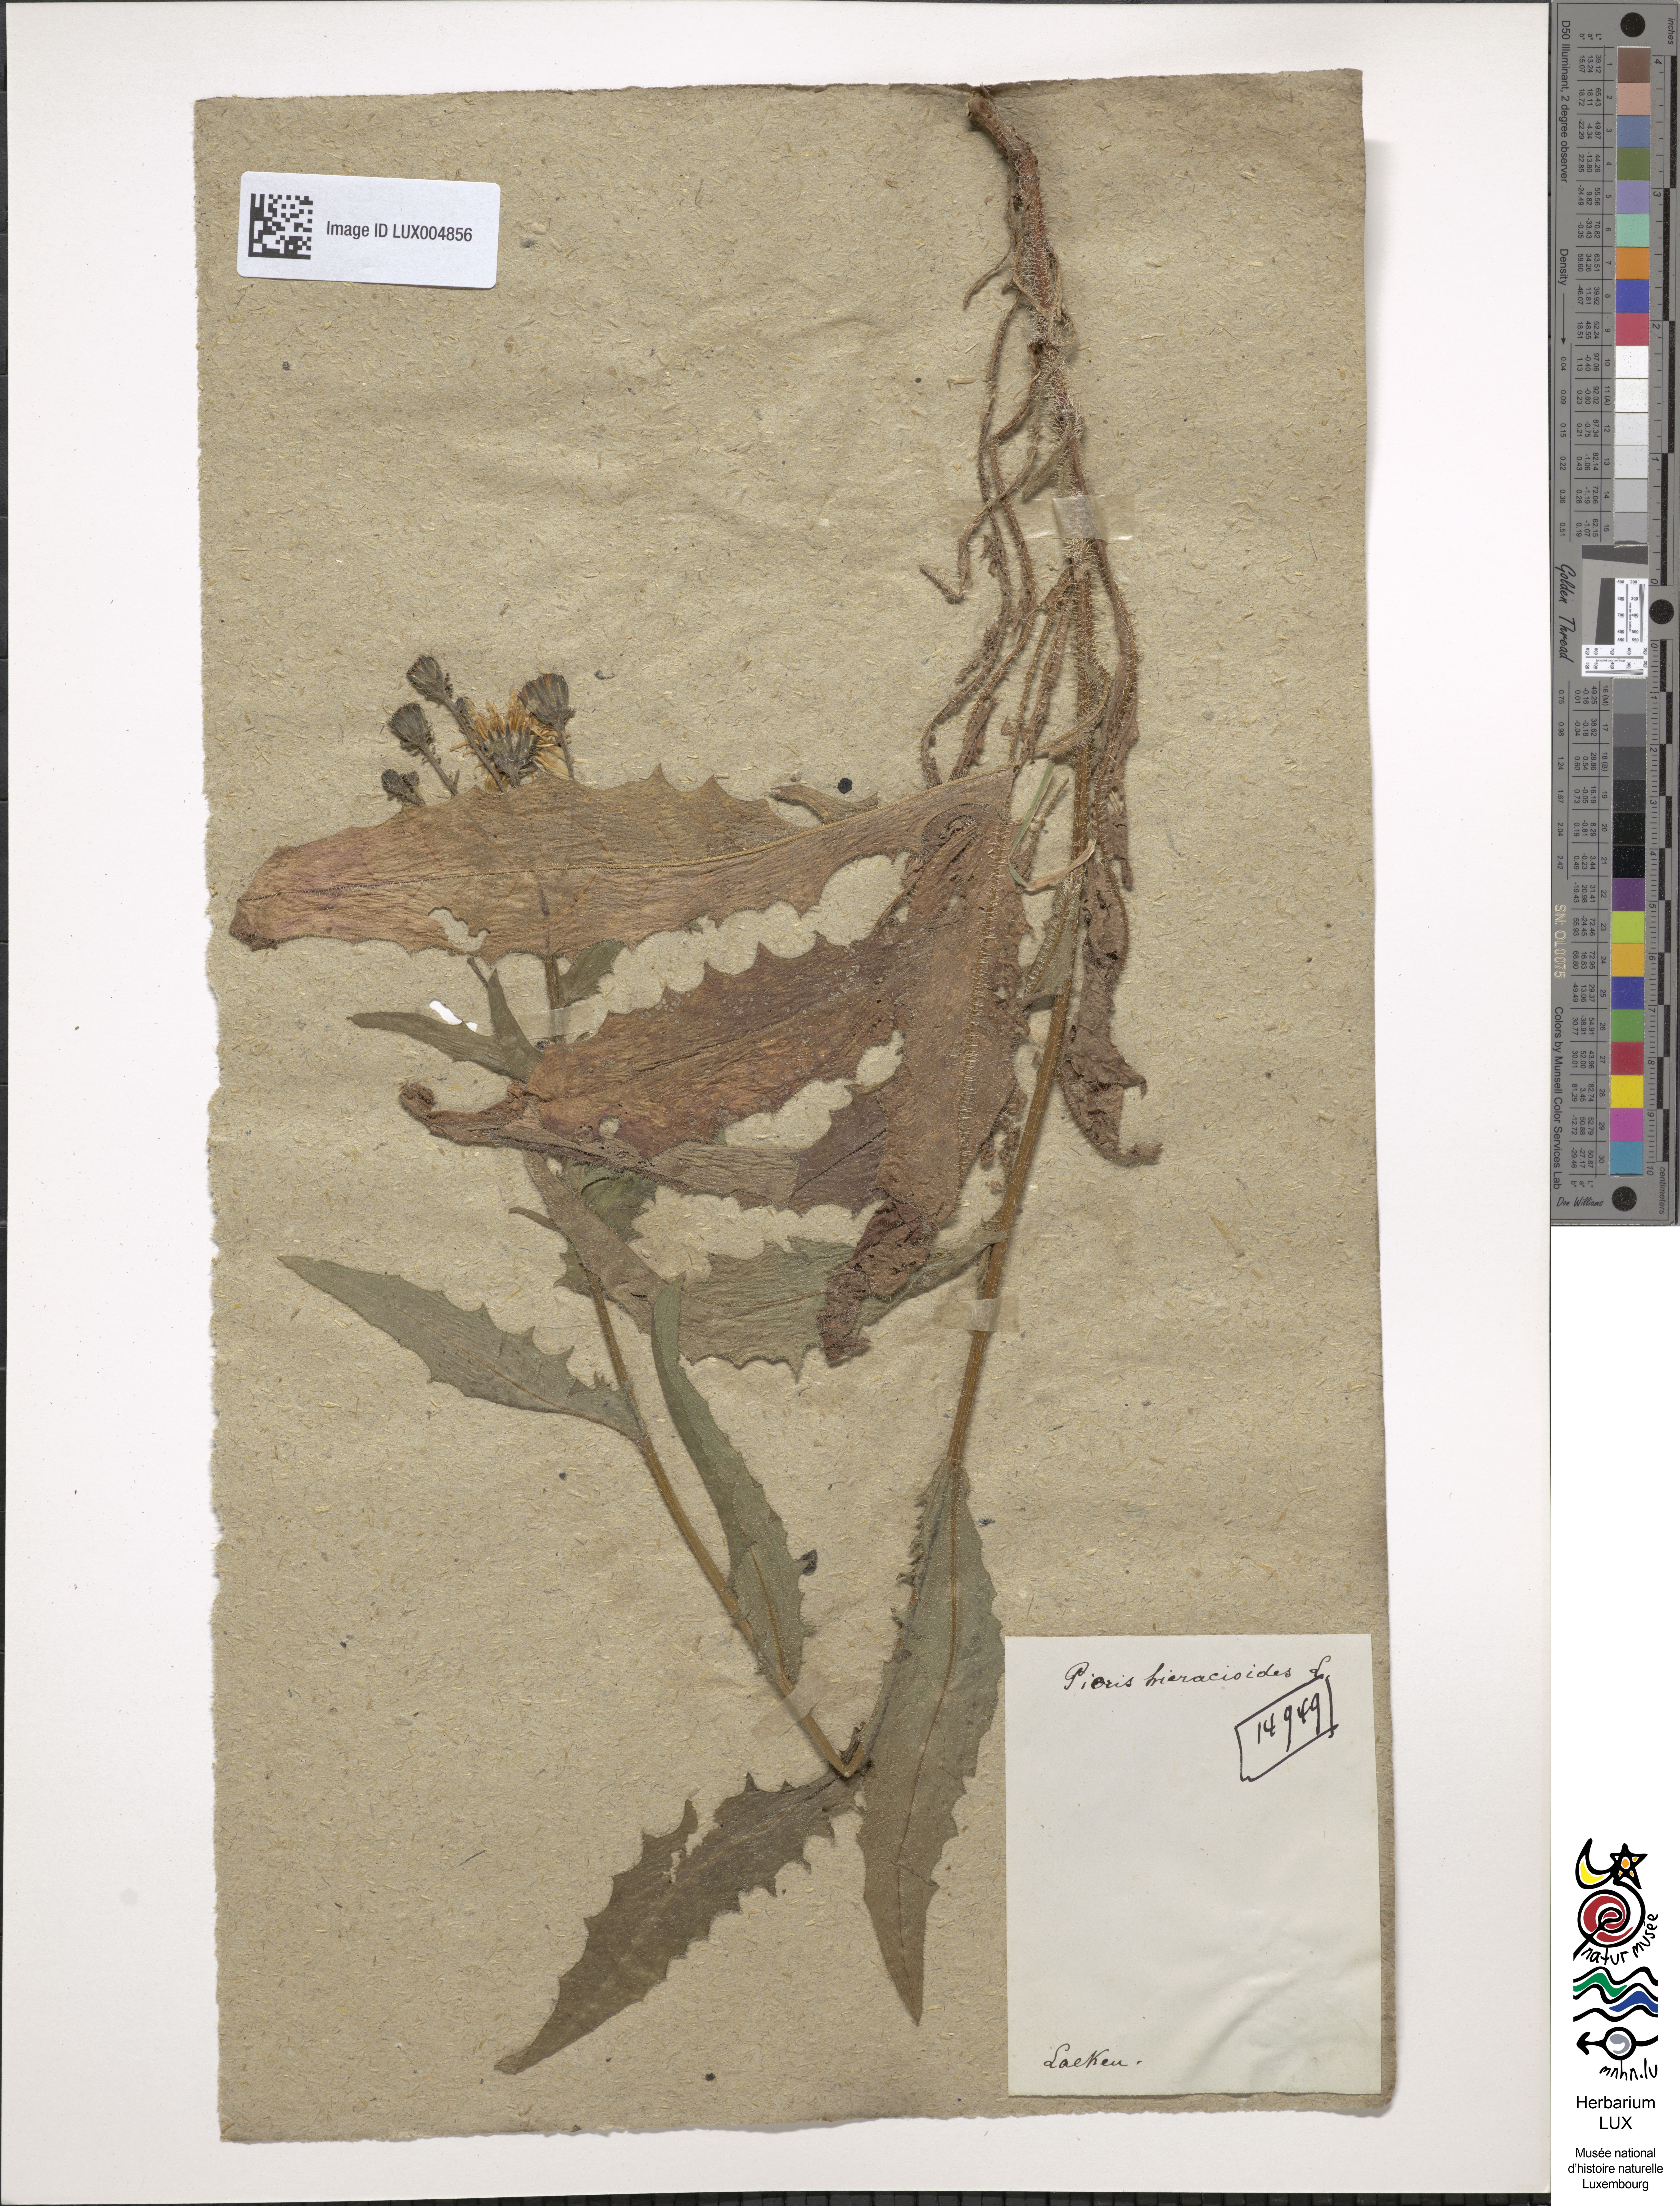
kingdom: Plantae
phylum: Tracheophyta
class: Magnoliopsida
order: Asterales
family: Asteraceae
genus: Picris
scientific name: Picris hieracioides
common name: Hawkweed oxtongue
